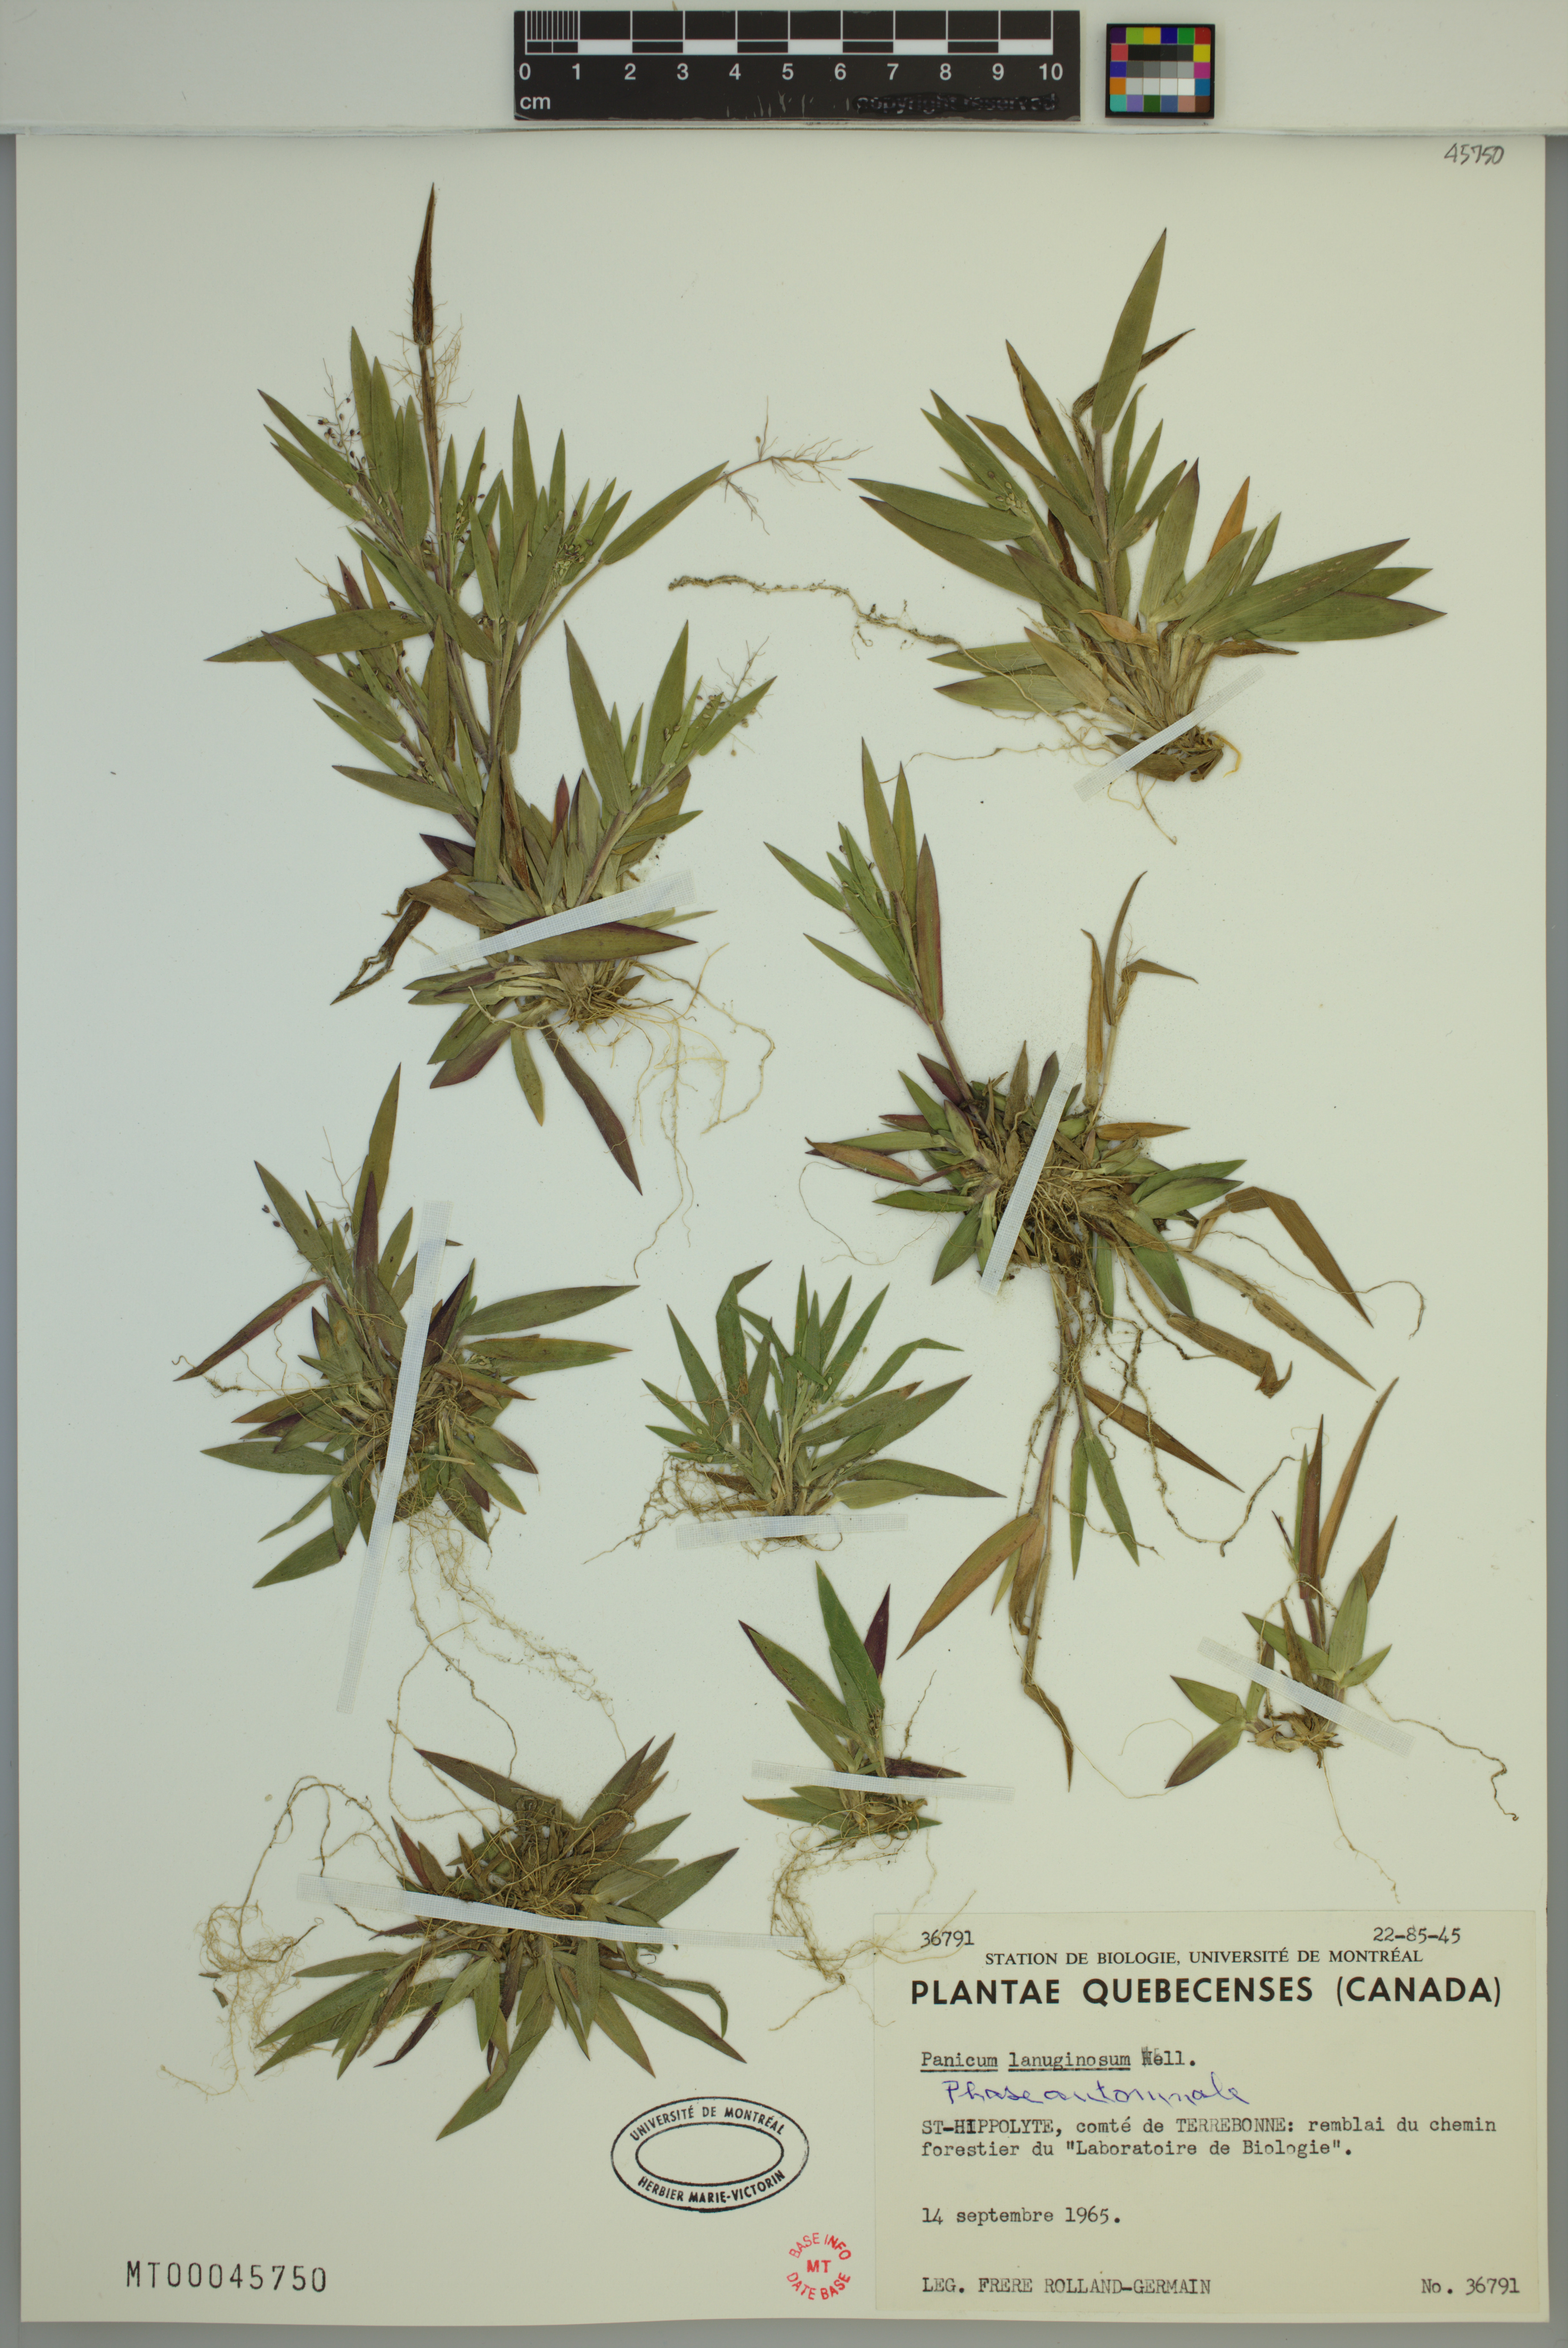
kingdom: Plantae
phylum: Tracheophyta
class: Liliopsida
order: Poales
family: Poaceae
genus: Dichanthelium
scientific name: Dichanthelium lanuginosum
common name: Woolly panicgrass
